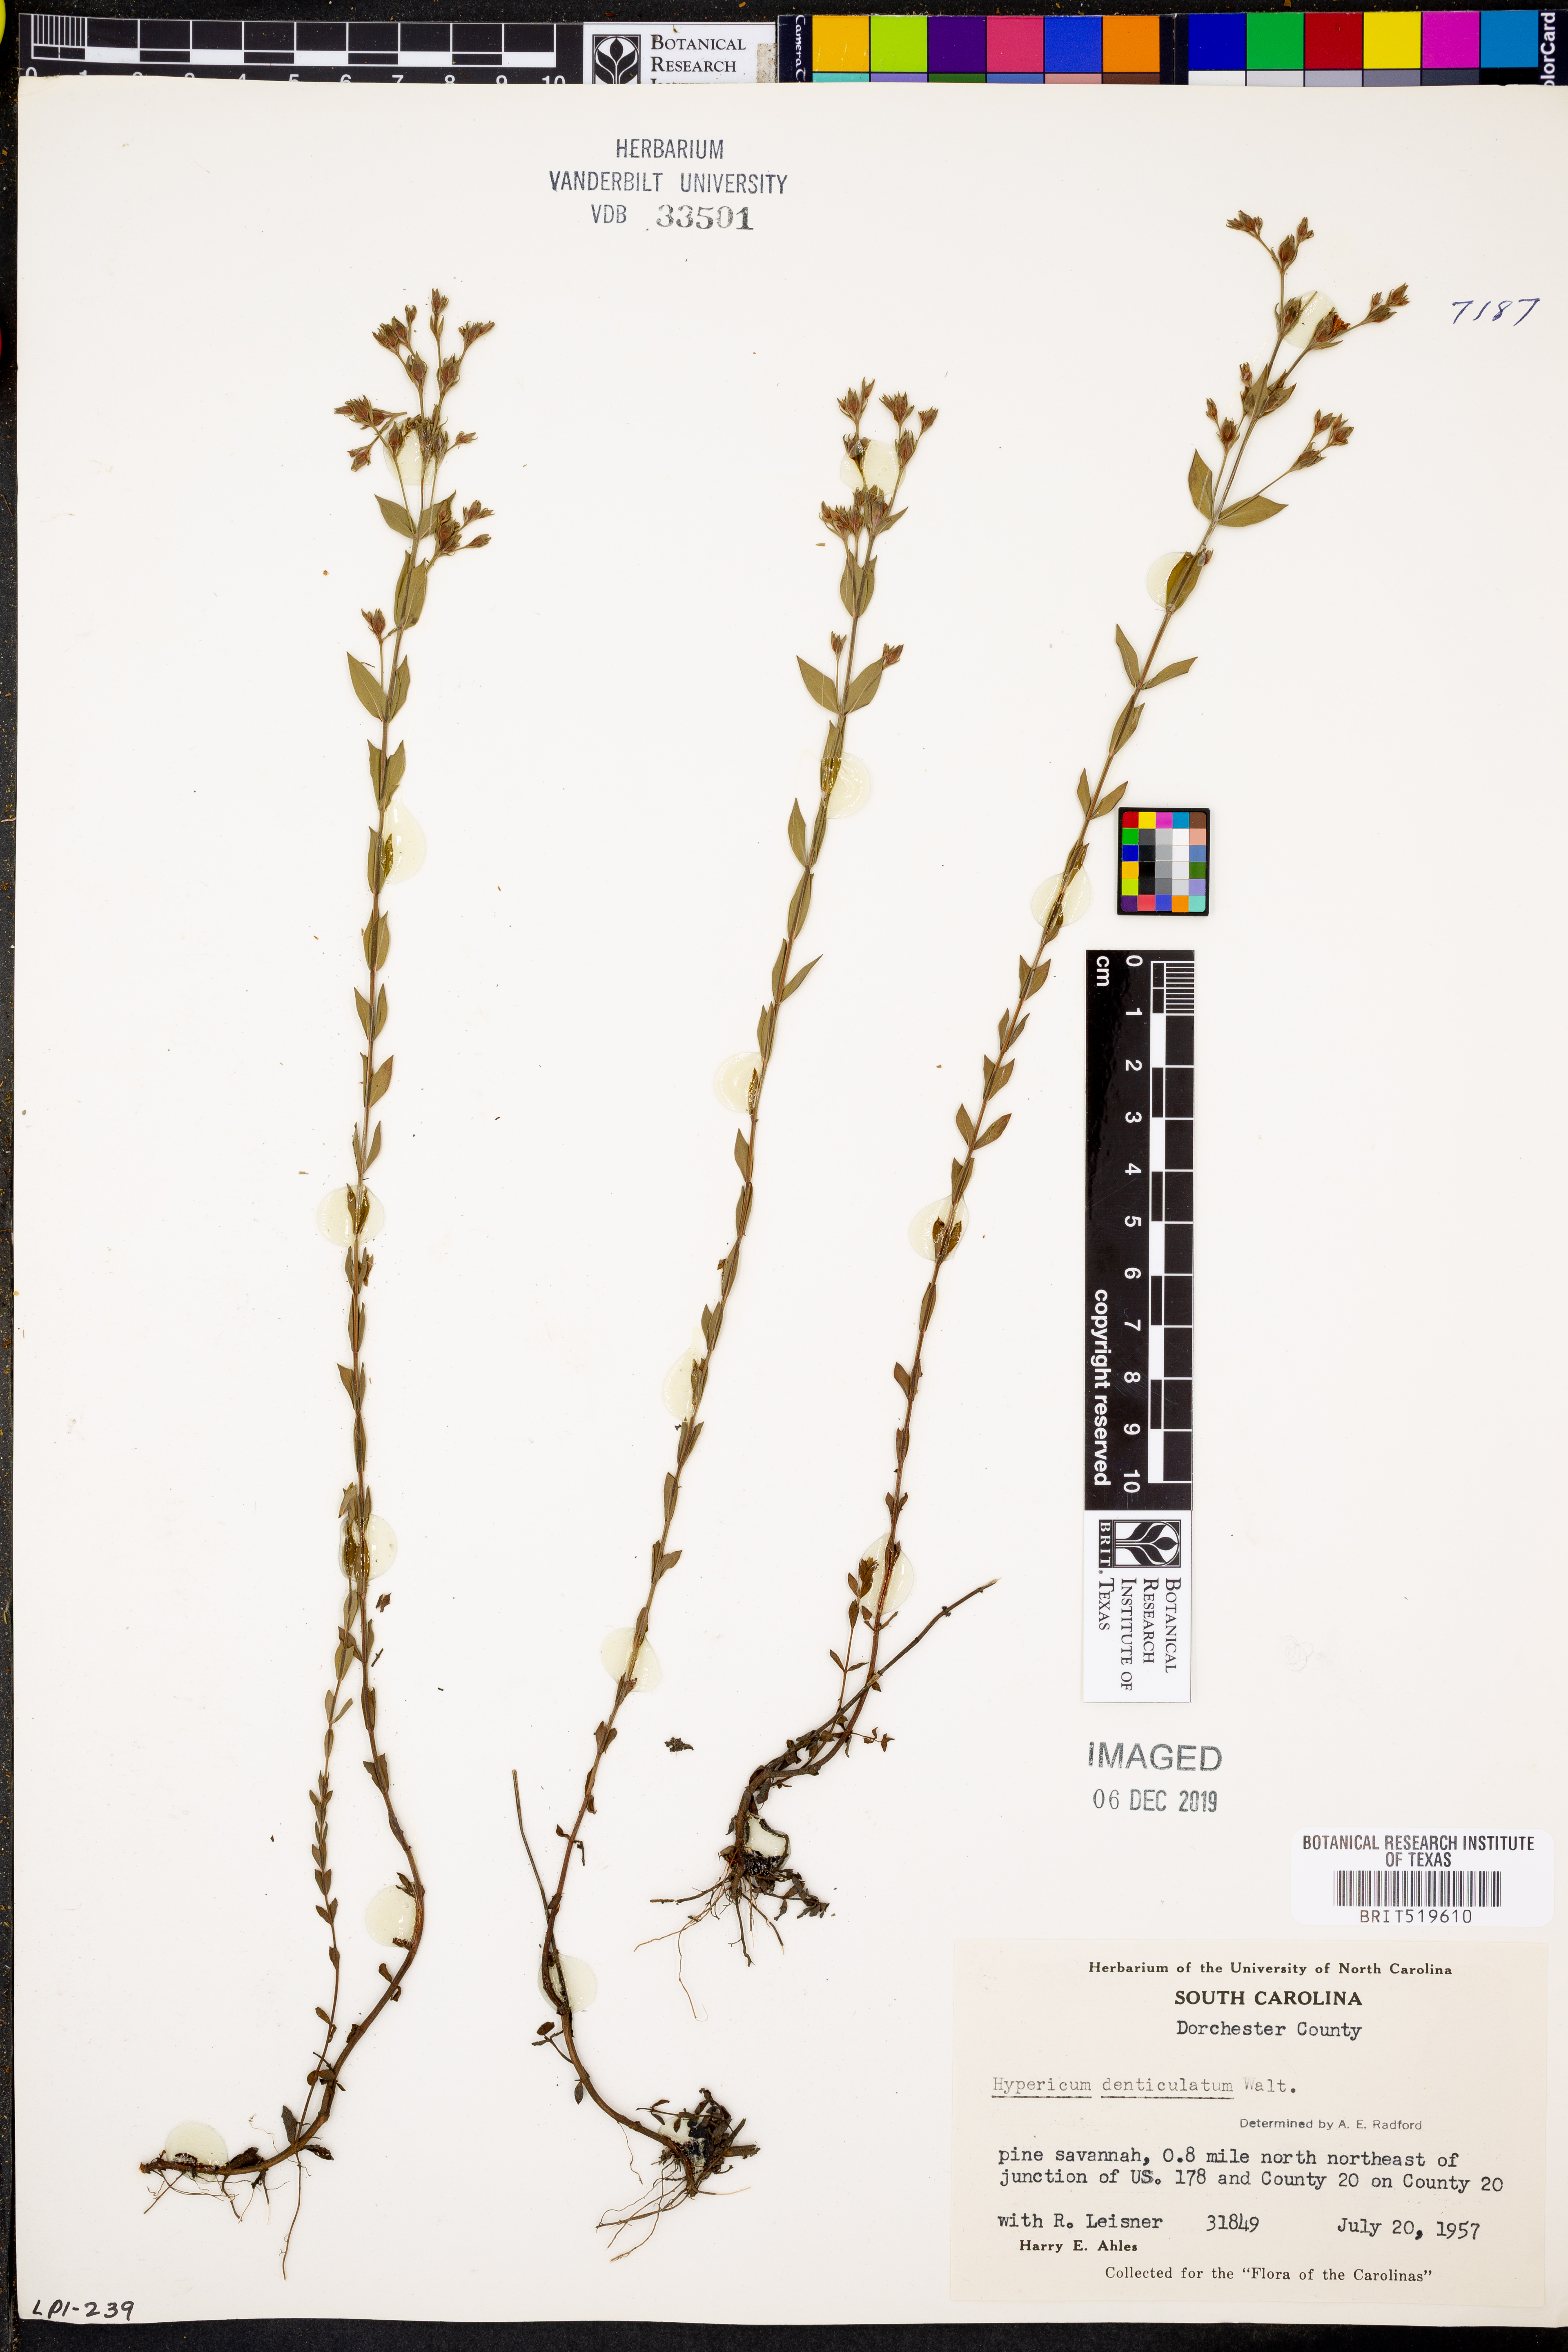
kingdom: Plantae
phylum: Tracheophyta
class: Magnoliopsida
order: Malpighiales
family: Hypericaceae
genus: Hypericum
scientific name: Hypericum denticulatum
